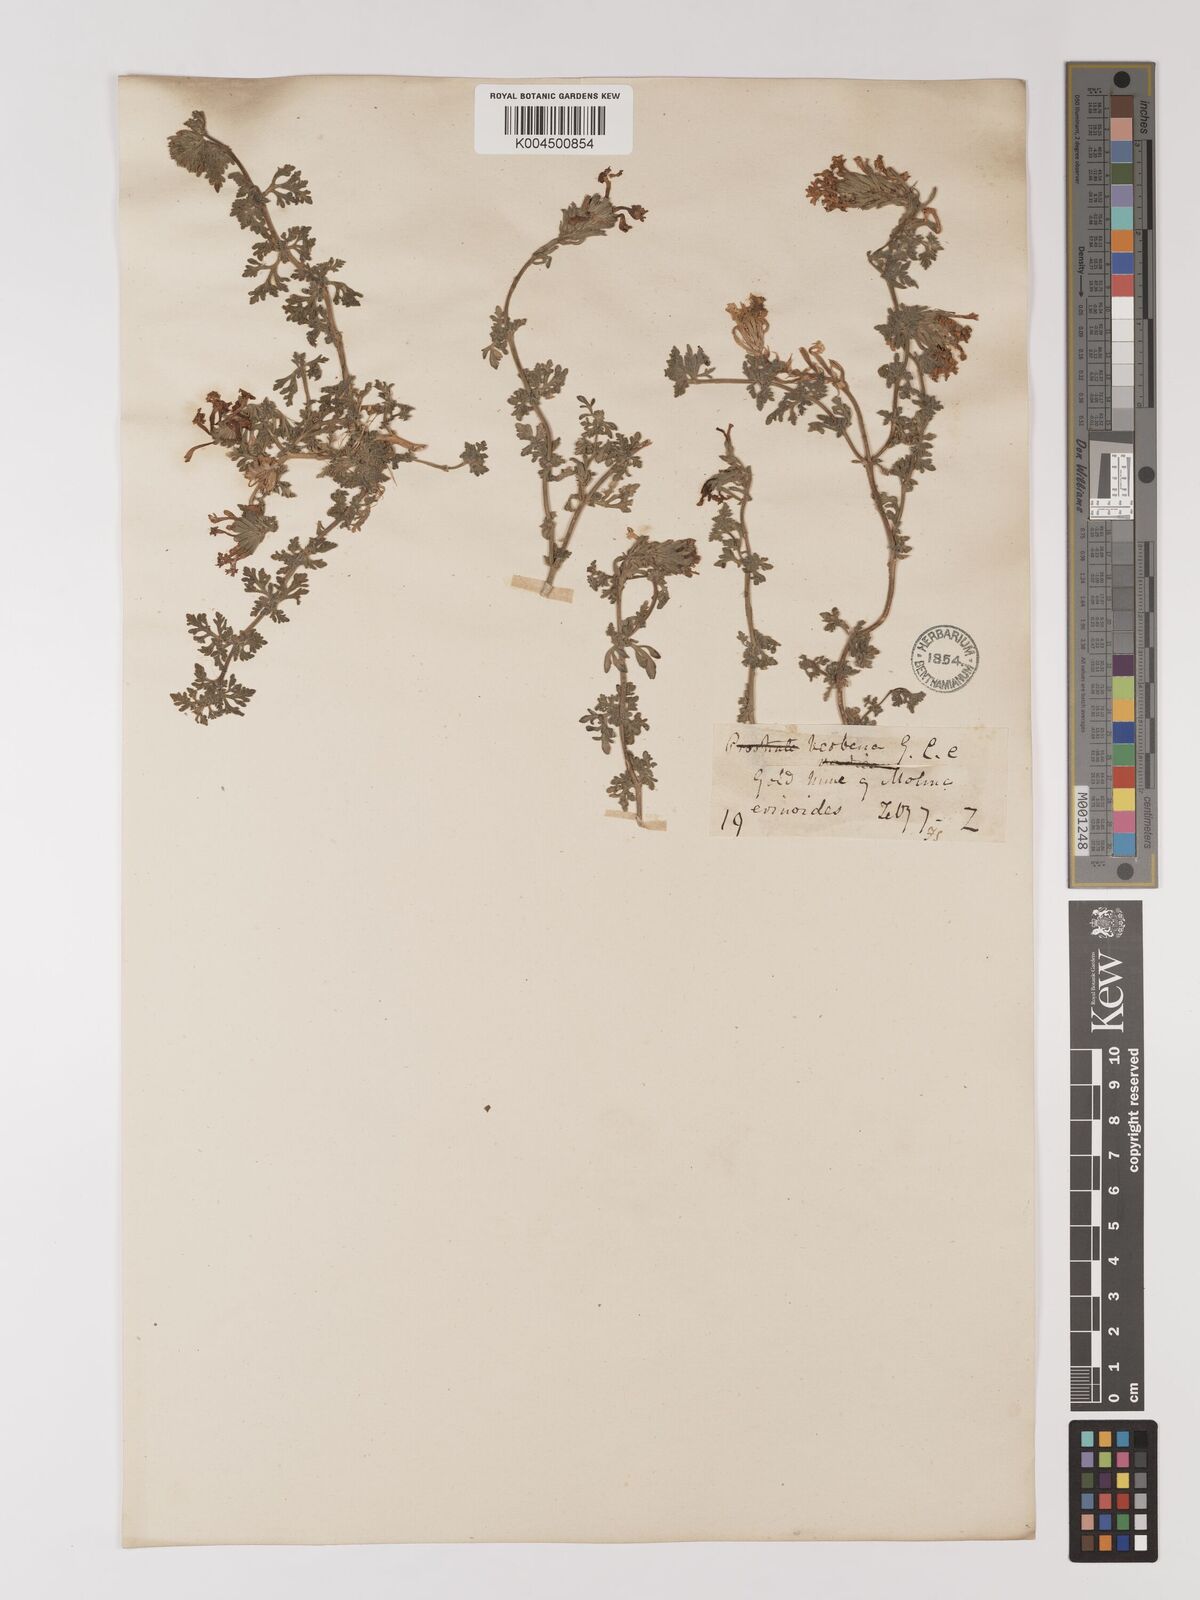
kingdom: Plantae
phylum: Tracheophyta
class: Magnoliopsida
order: Lamiales
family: Verbenaceae
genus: Verbena
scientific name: Verbena
